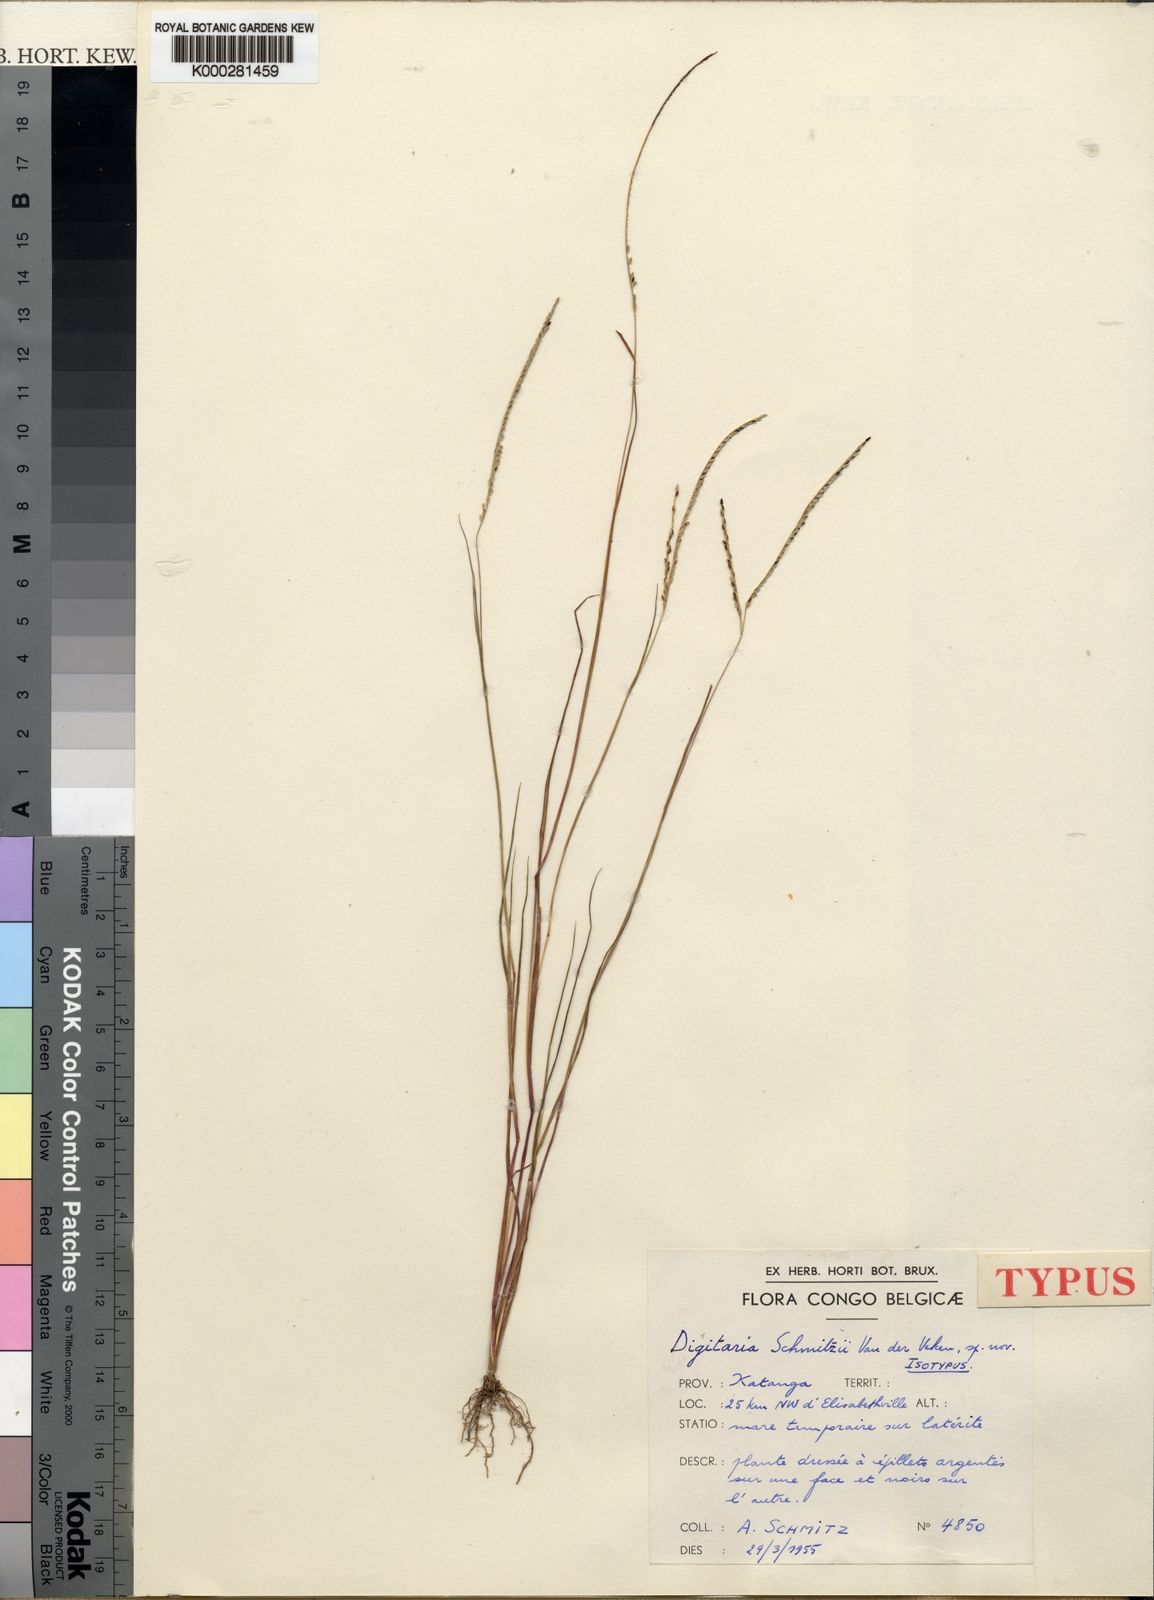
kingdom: Plantae
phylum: Tracheophyta
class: Liliopsida
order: Poales
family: Poaceae
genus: Digitaria
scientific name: Digitaria schmitzii
